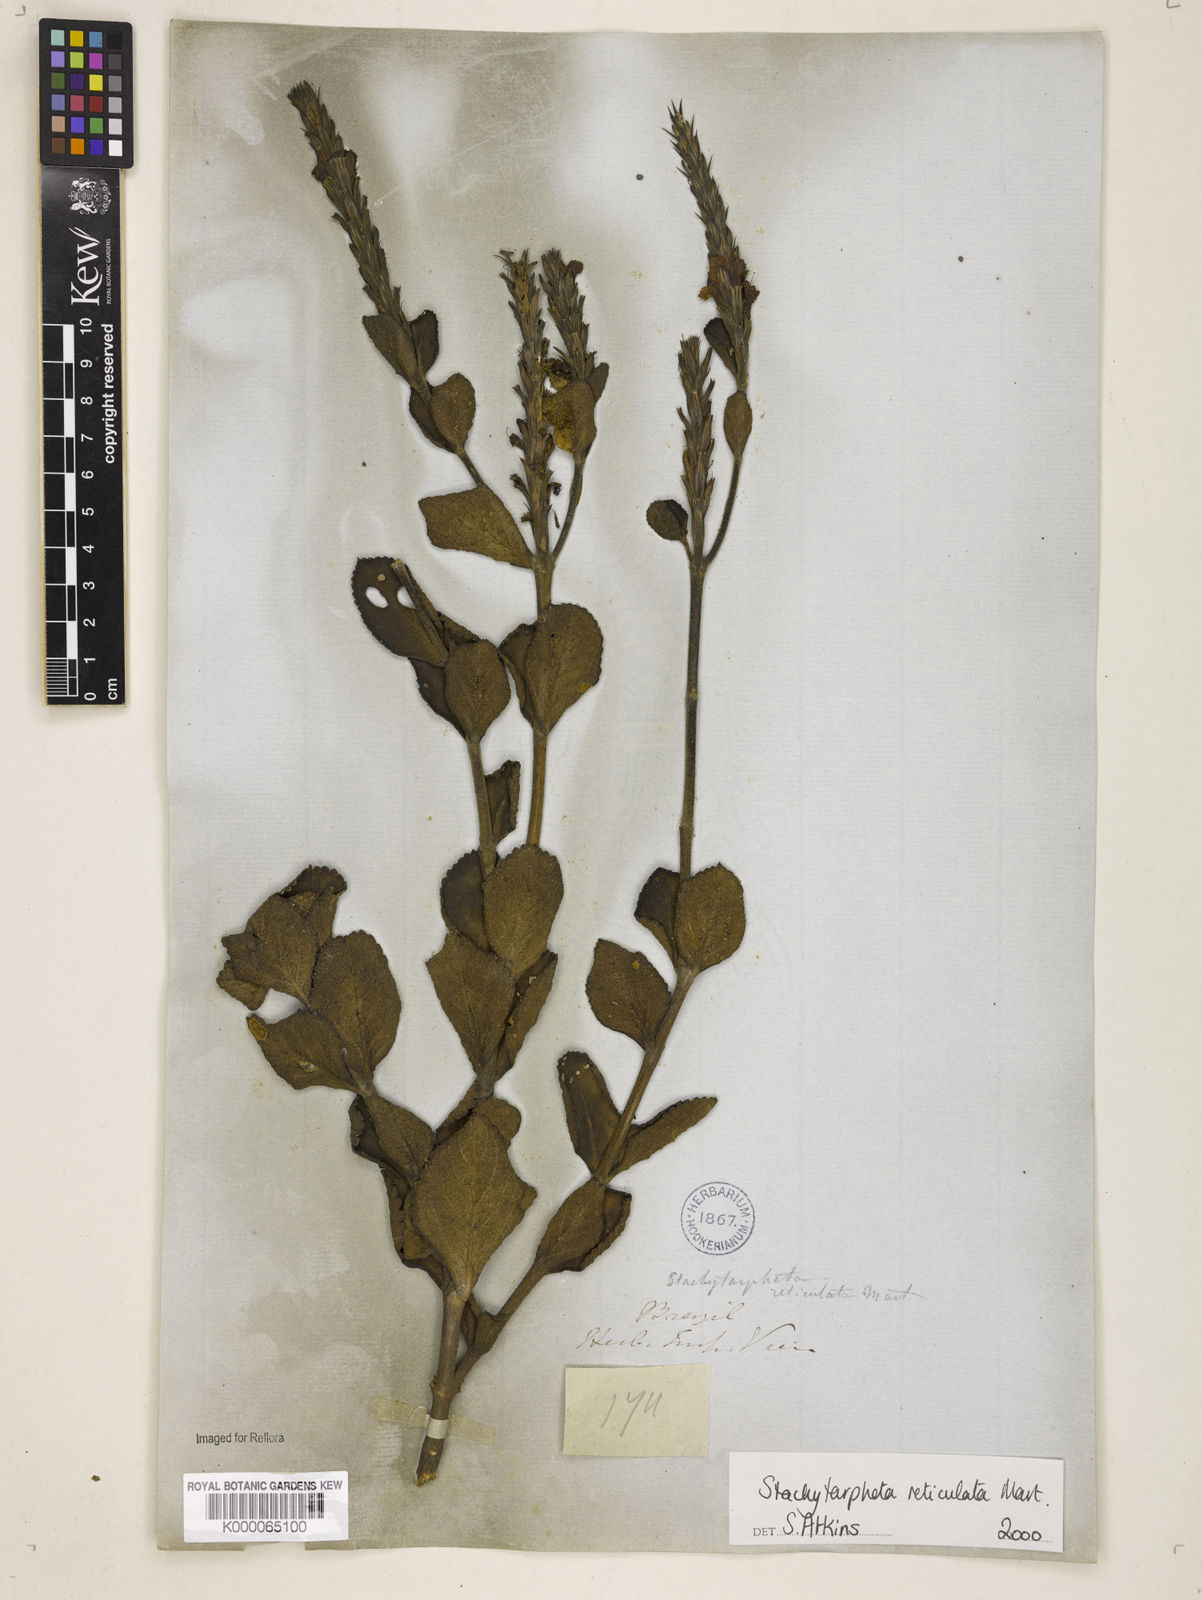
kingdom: Plantae
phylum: Tracheophyta
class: Magnoliopsida
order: Lamiales
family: Verbenaceae
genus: Stachytarpheta
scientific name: Stachytarpheta
